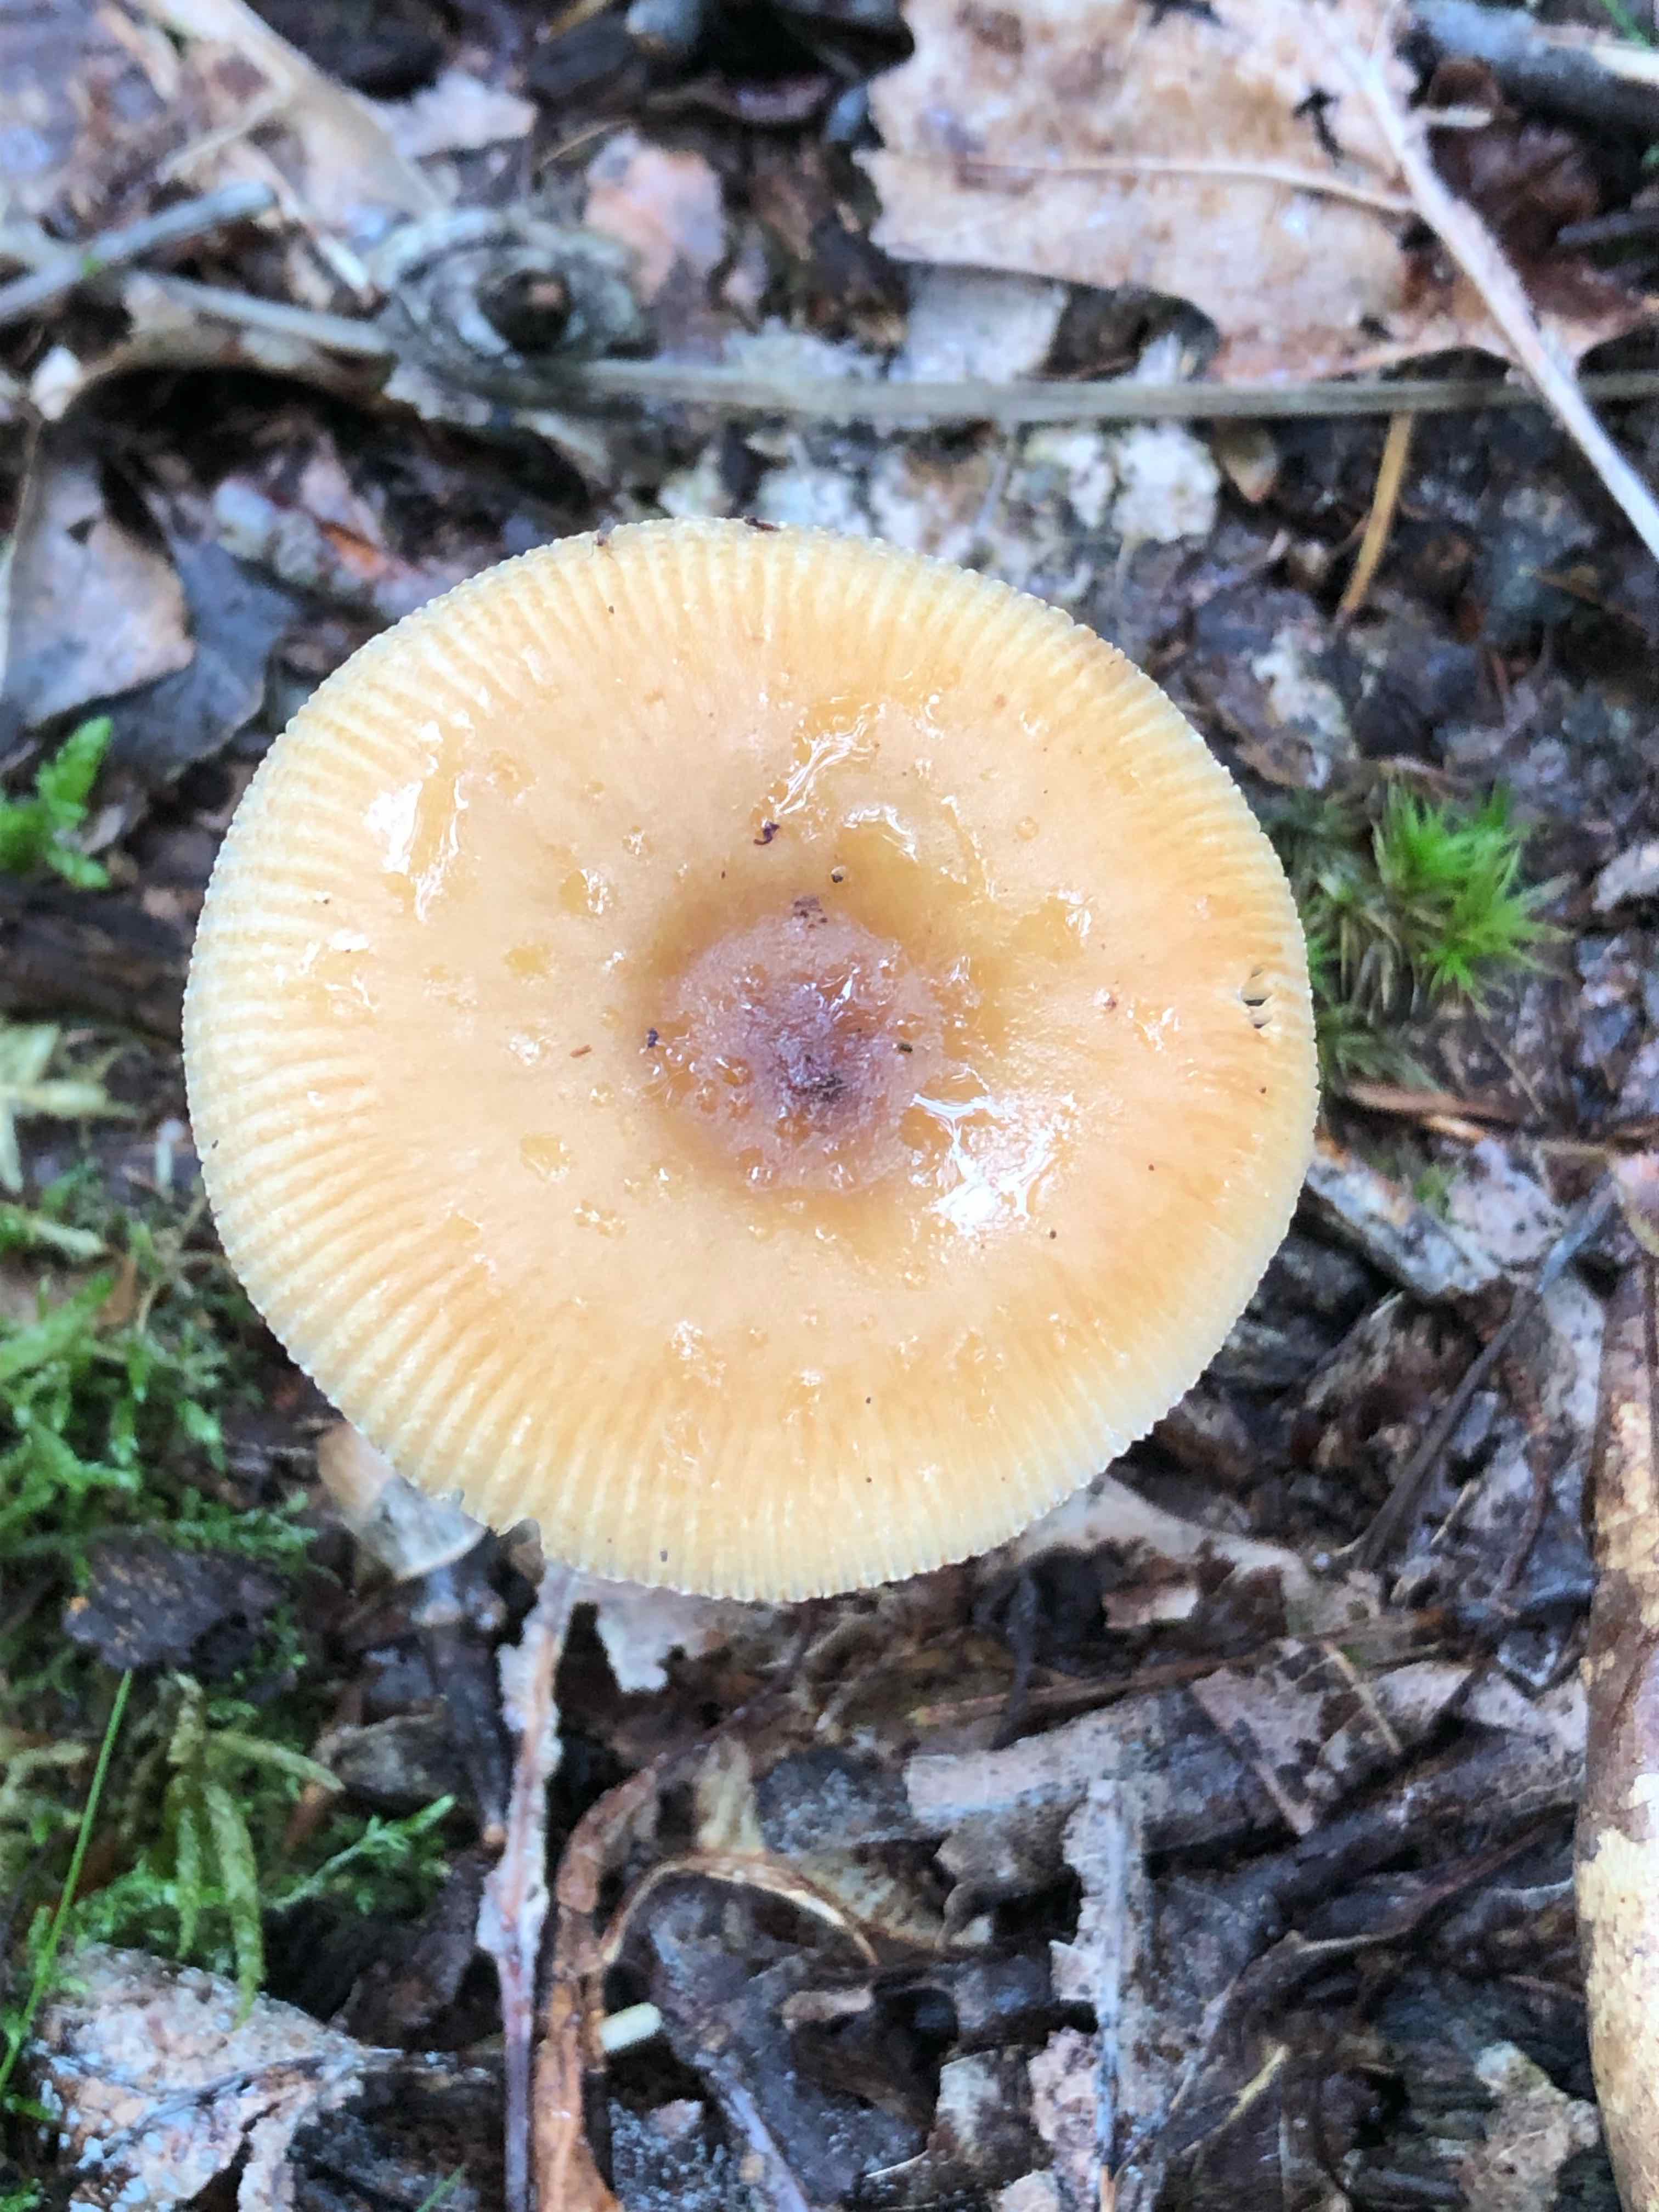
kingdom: Fungi
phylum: Basidiomycota
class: Agaricomycetes
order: Agaricales
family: Amanitaceae
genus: Amanita
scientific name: Amanita fulva
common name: brun kam-fluesvamp
